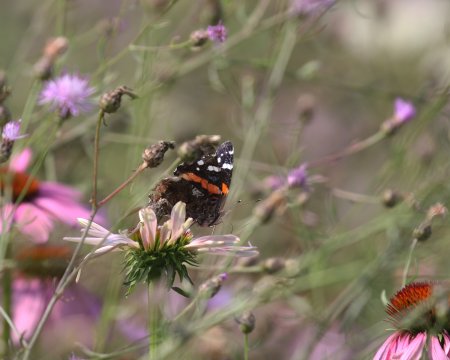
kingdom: Animalia
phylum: Arthropoda
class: Insecta
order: Lepidoptera
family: Nymphalidae
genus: Vanessa
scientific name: Vanessa atalanta
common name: Red Admiral
